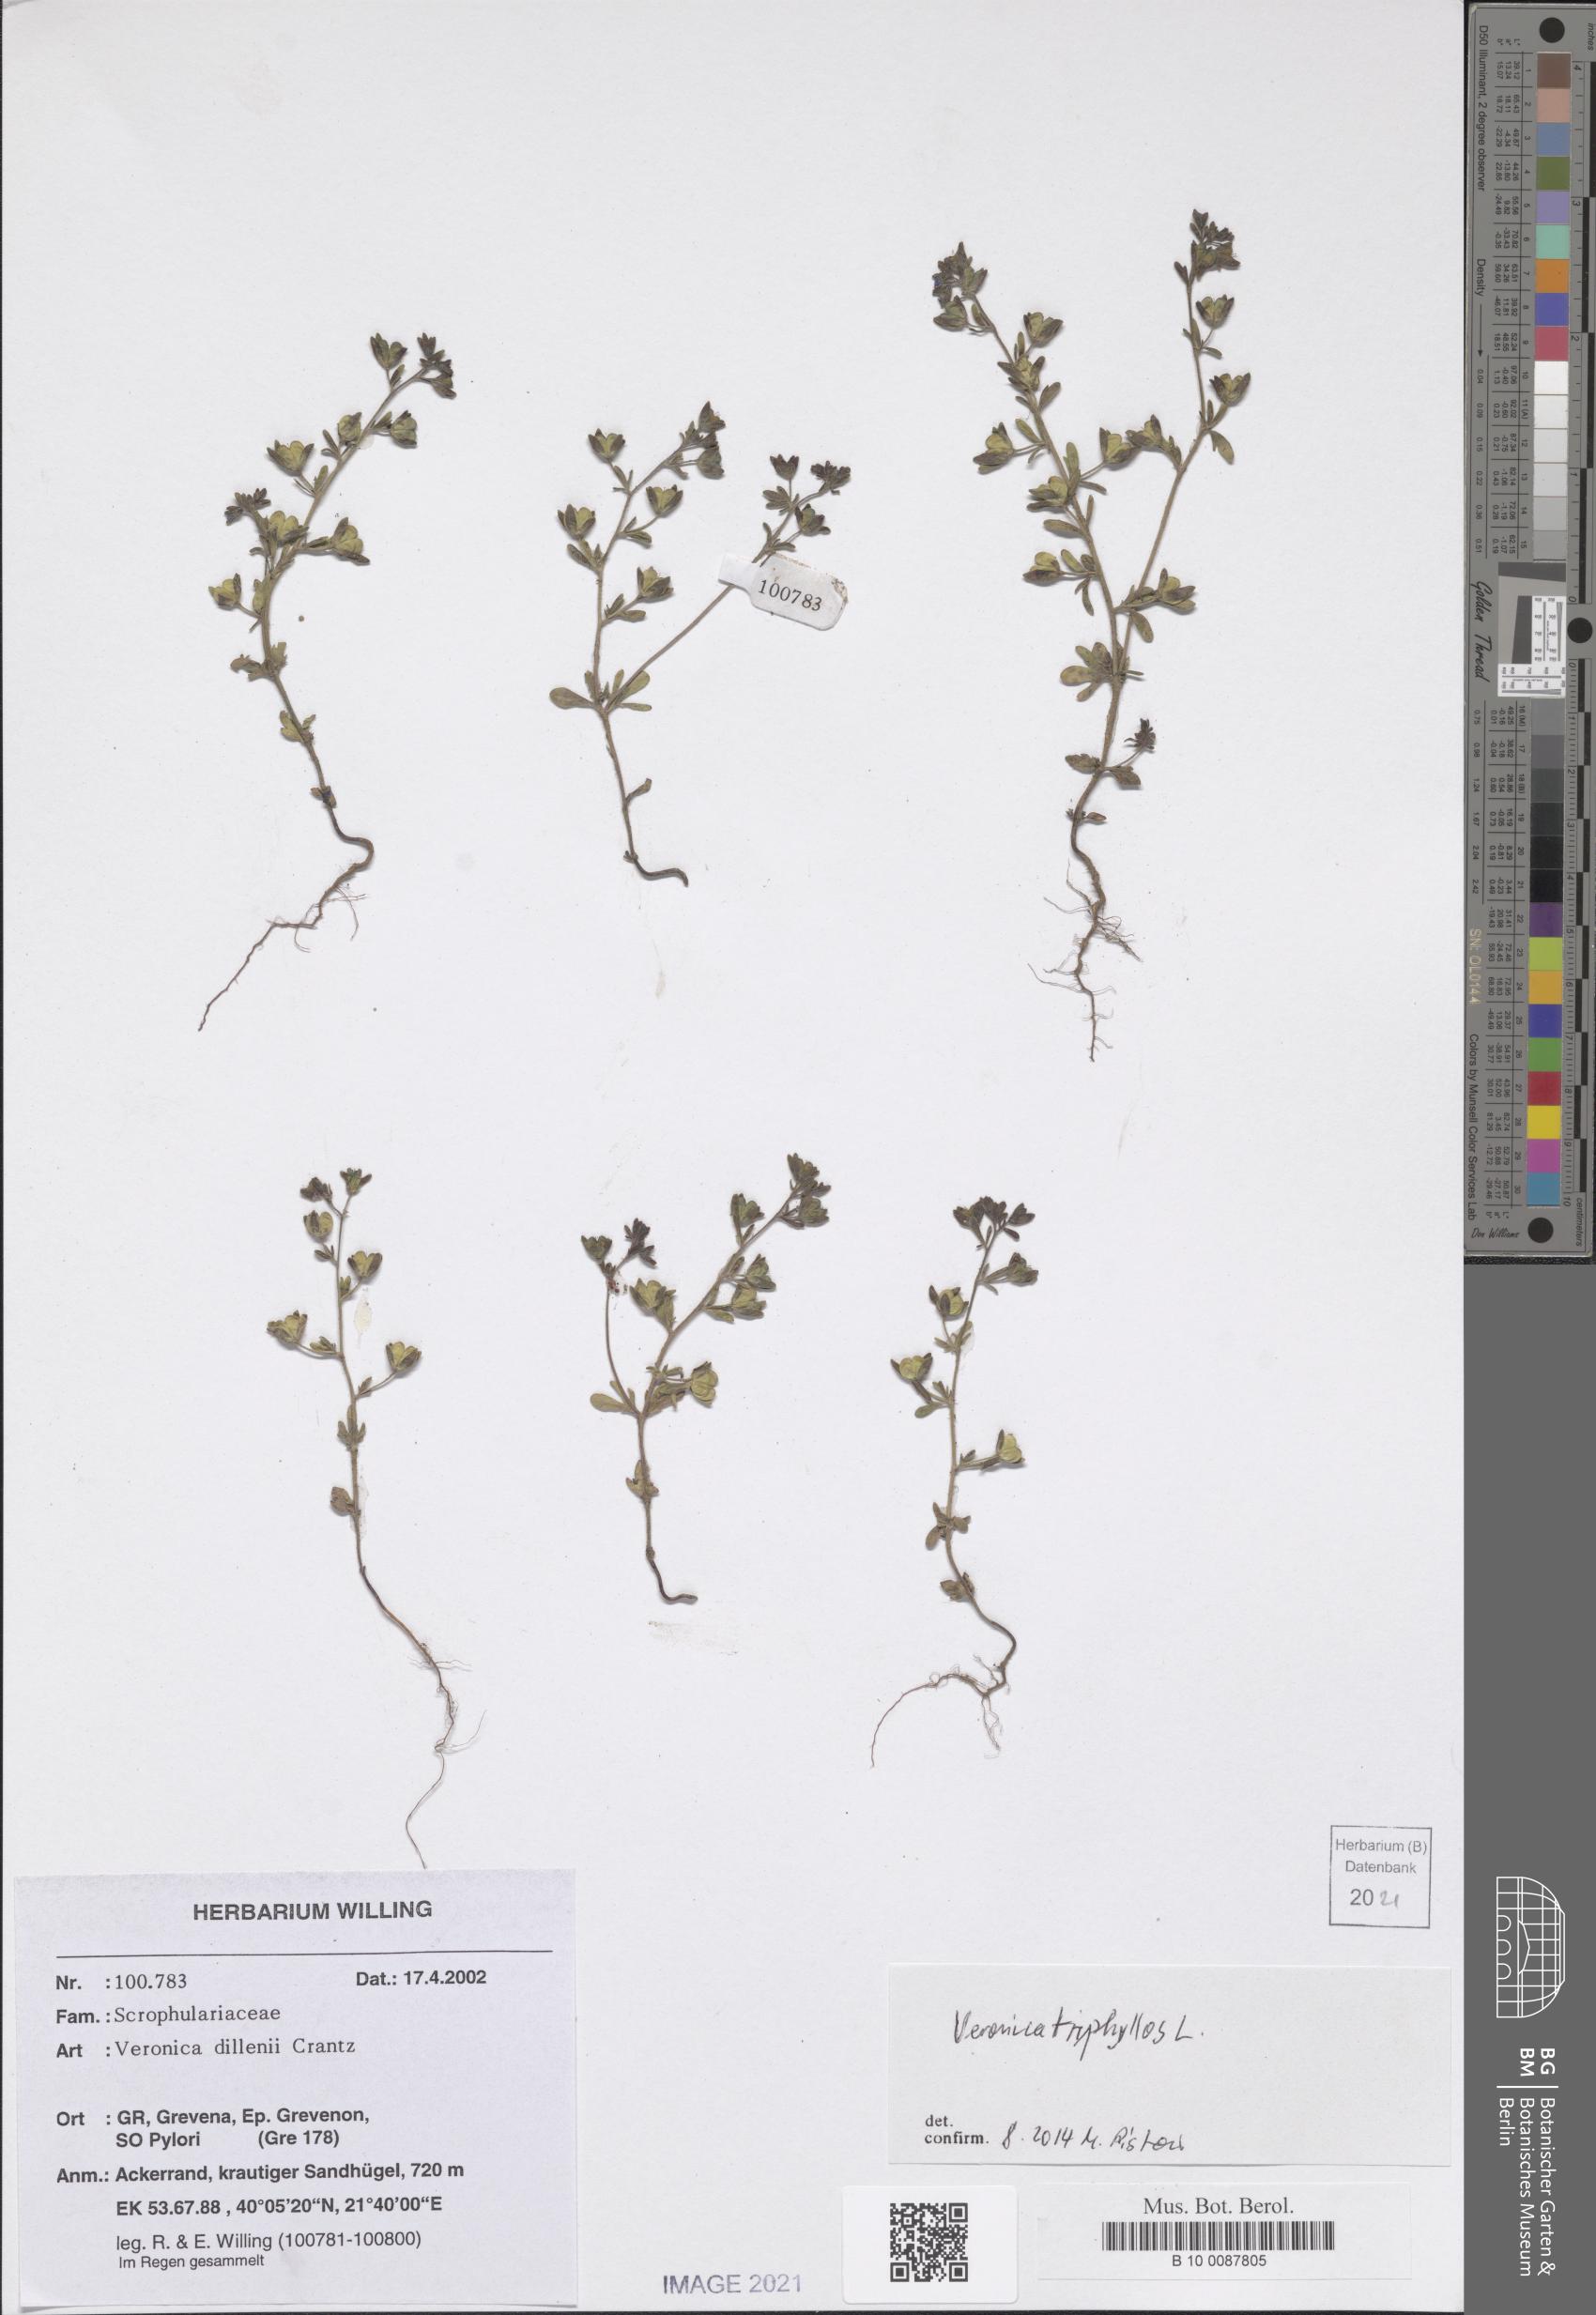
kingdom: Plantae
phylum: Tracheophyta
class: Magnoliopsida
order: Lamiales
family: Plantaginaceae
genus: Veronica
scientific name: Veronica triphyllos
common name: Fingered speedwell
